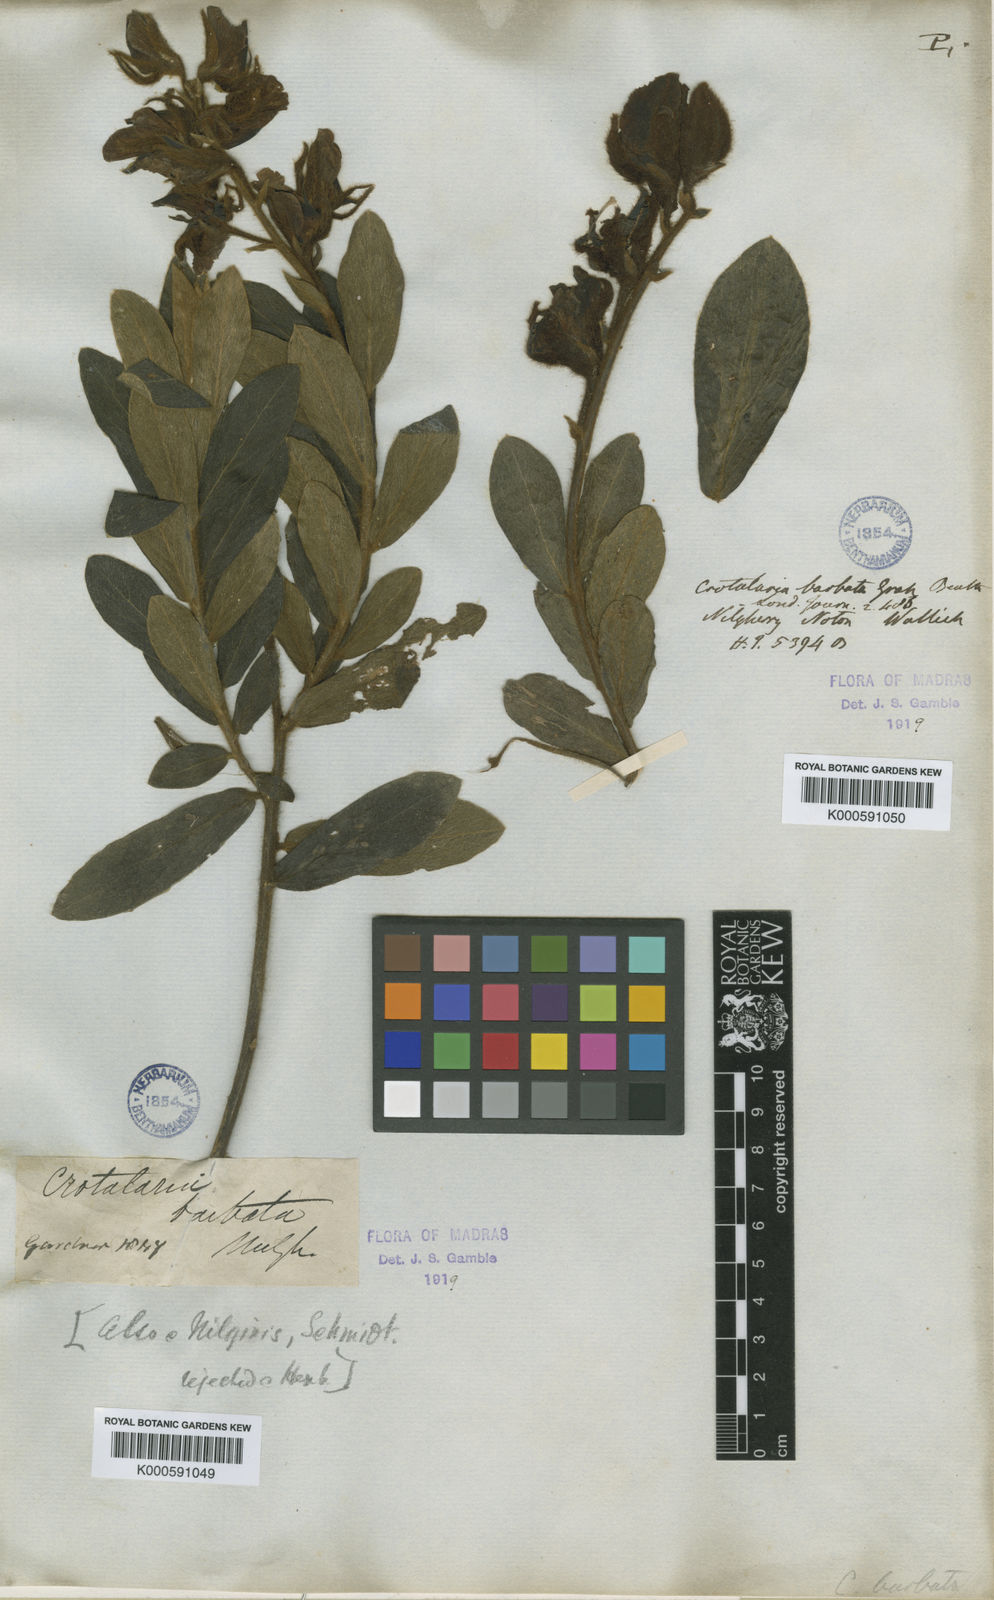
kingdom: Plantae
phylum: Tracheophyta
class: Magnoliopsida
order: Fabales
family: Fabaceae
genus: Crotalaria
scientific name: Crotalaria
